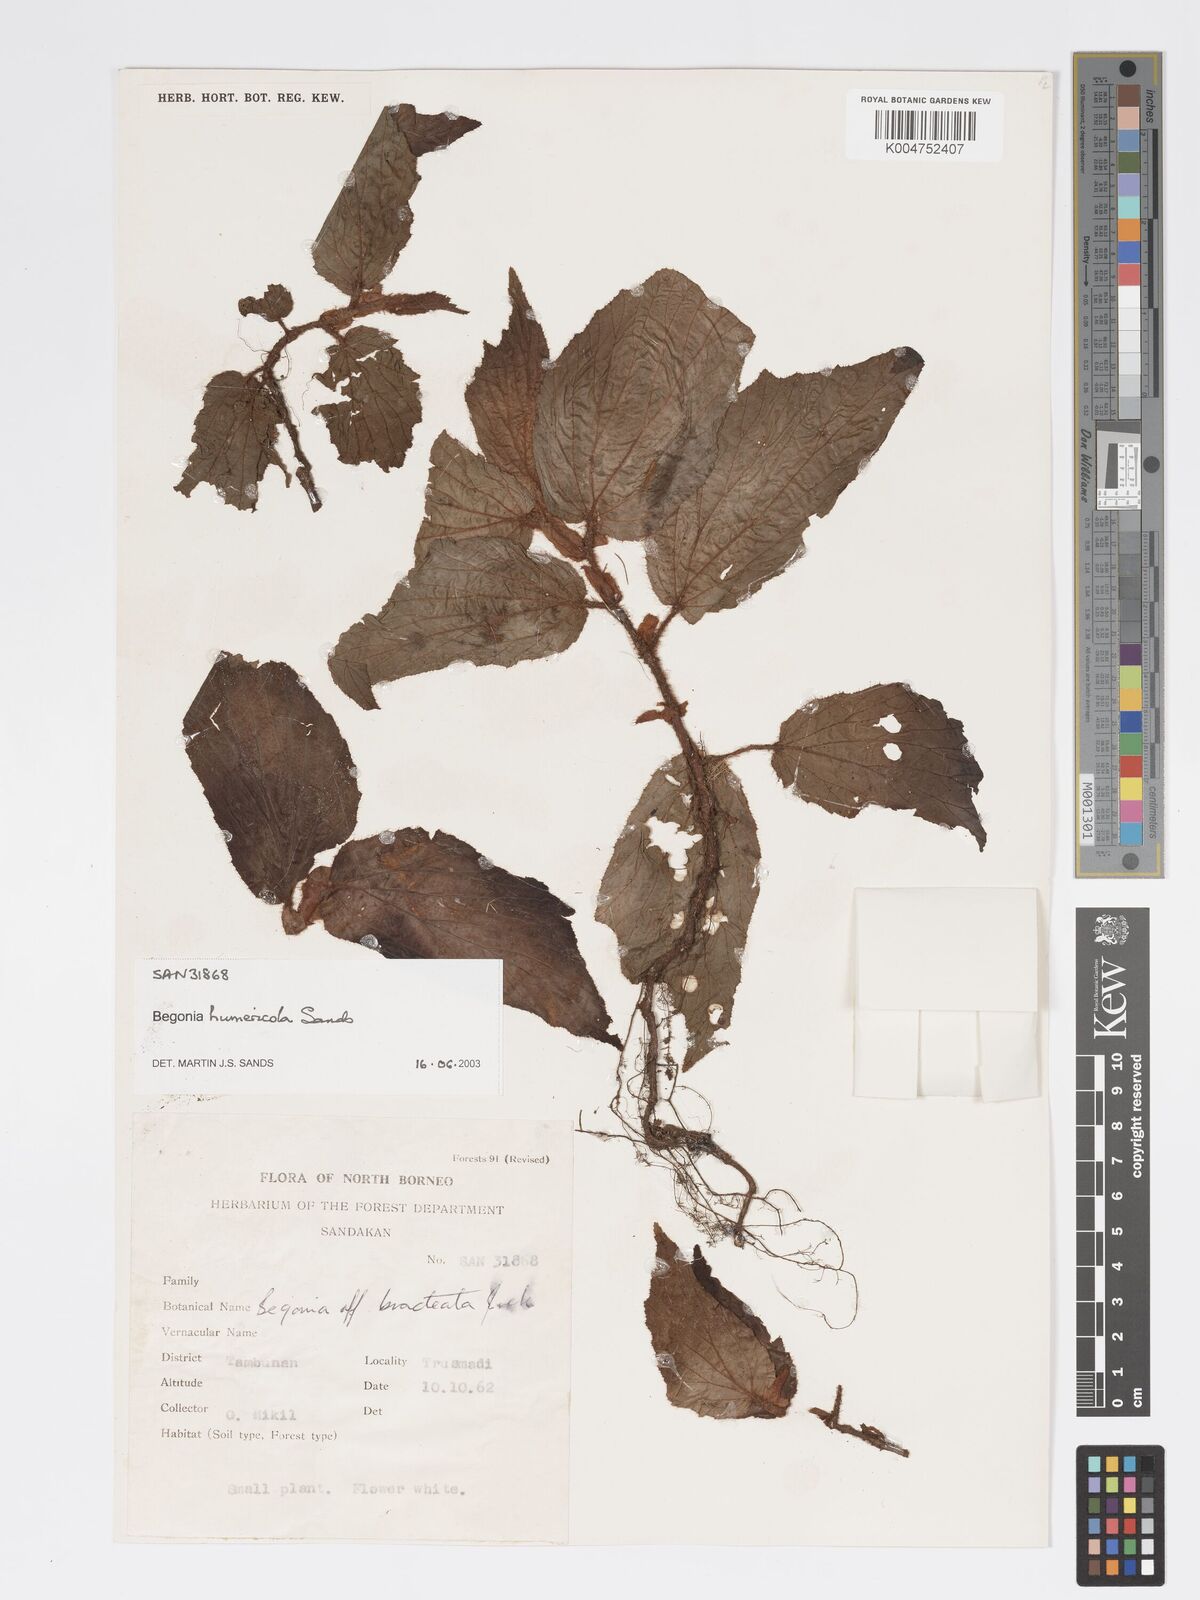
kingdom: Plantae
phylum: Tracheophyta
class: Magnoliopsida
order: Cucurbitales
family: Begoniaceae
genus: Begonia
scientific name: Begonia humericola
